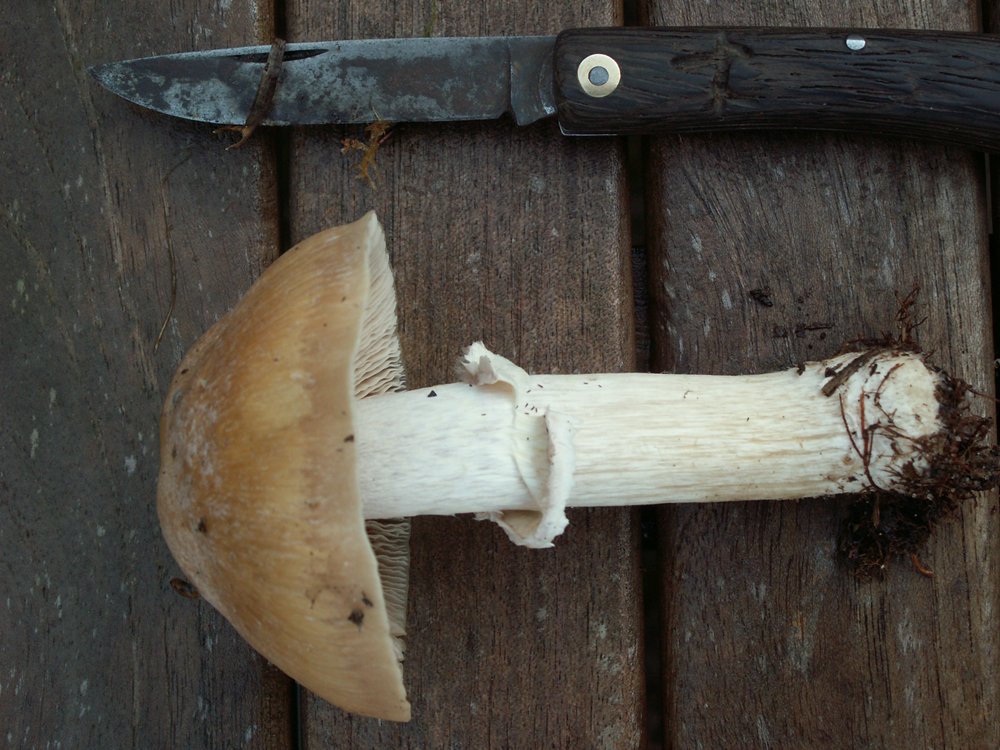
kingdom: Fungi
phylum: Basidiomycota
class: Agaricomycetes
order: Agaricales
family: Cortinariaceae
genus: Cortinarius
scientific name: Cortinarius caperatus
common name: klidhat
